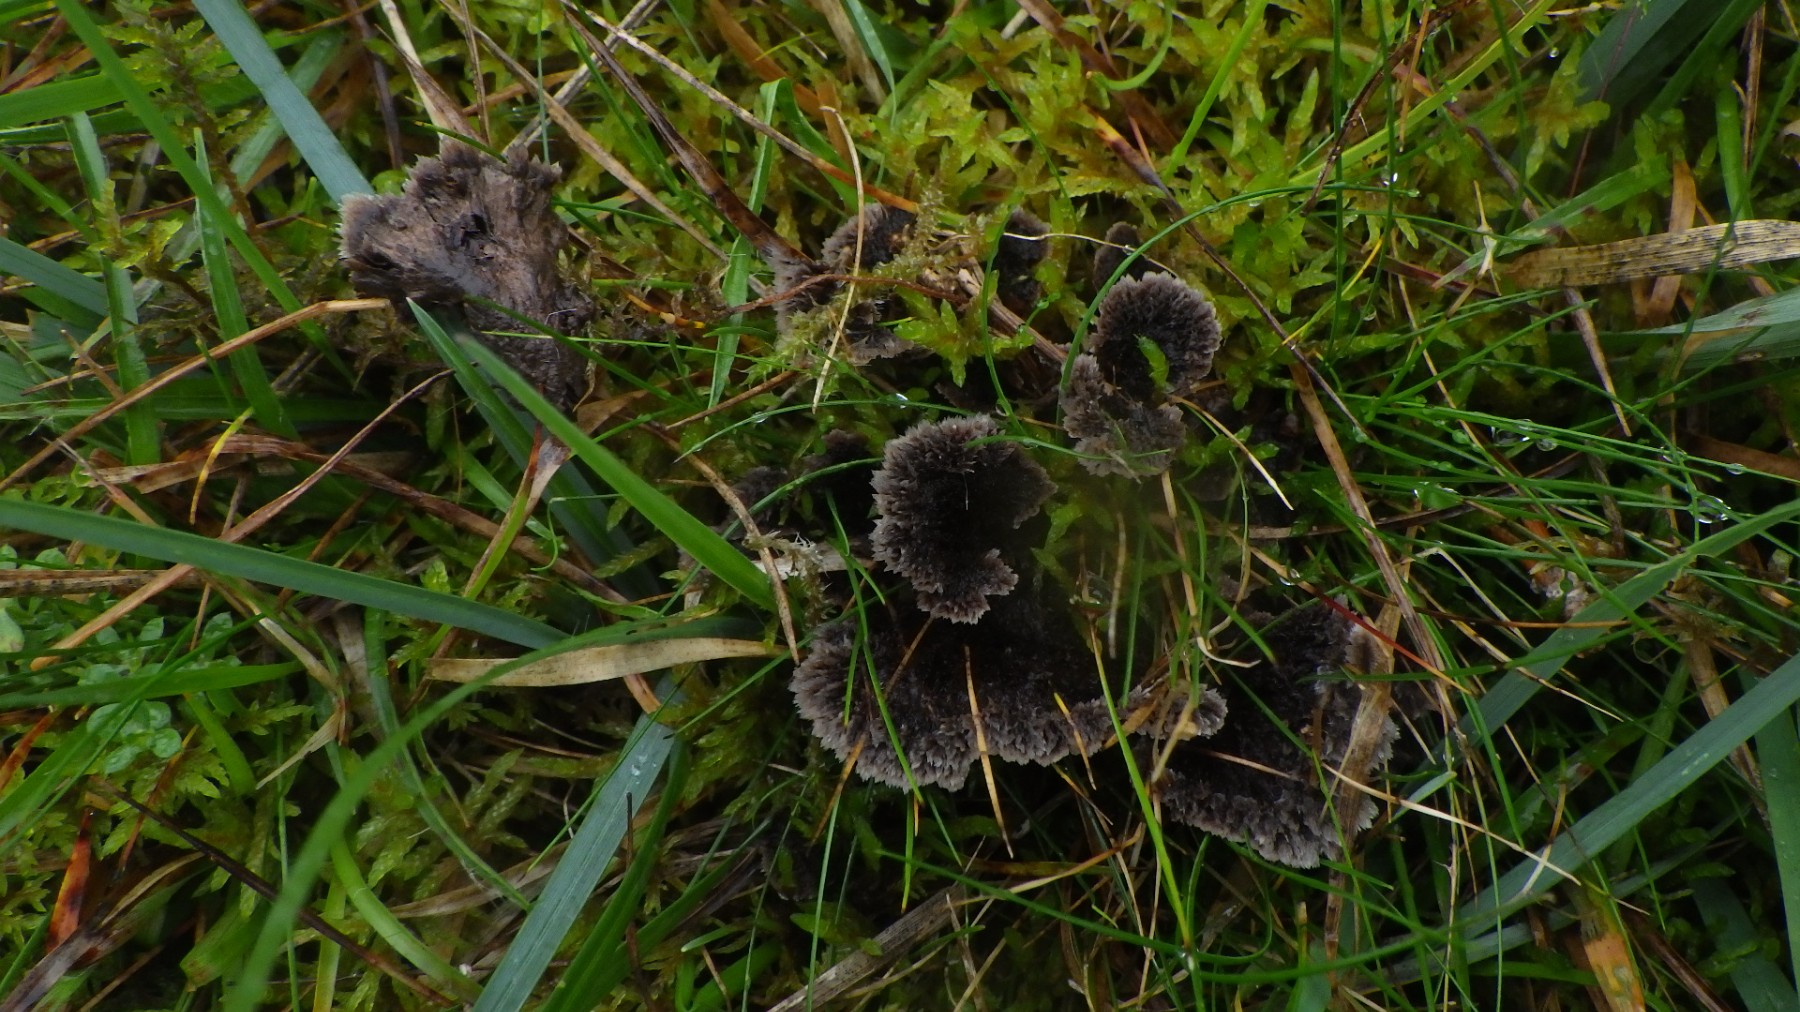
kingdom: Fungi
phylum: Basidiomycota
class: Agaricomycetes
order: Thelephorales
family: Thelephoraceae
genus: Thelephora
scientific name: Thelephora terrestris
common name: fliget frynsesvamp
